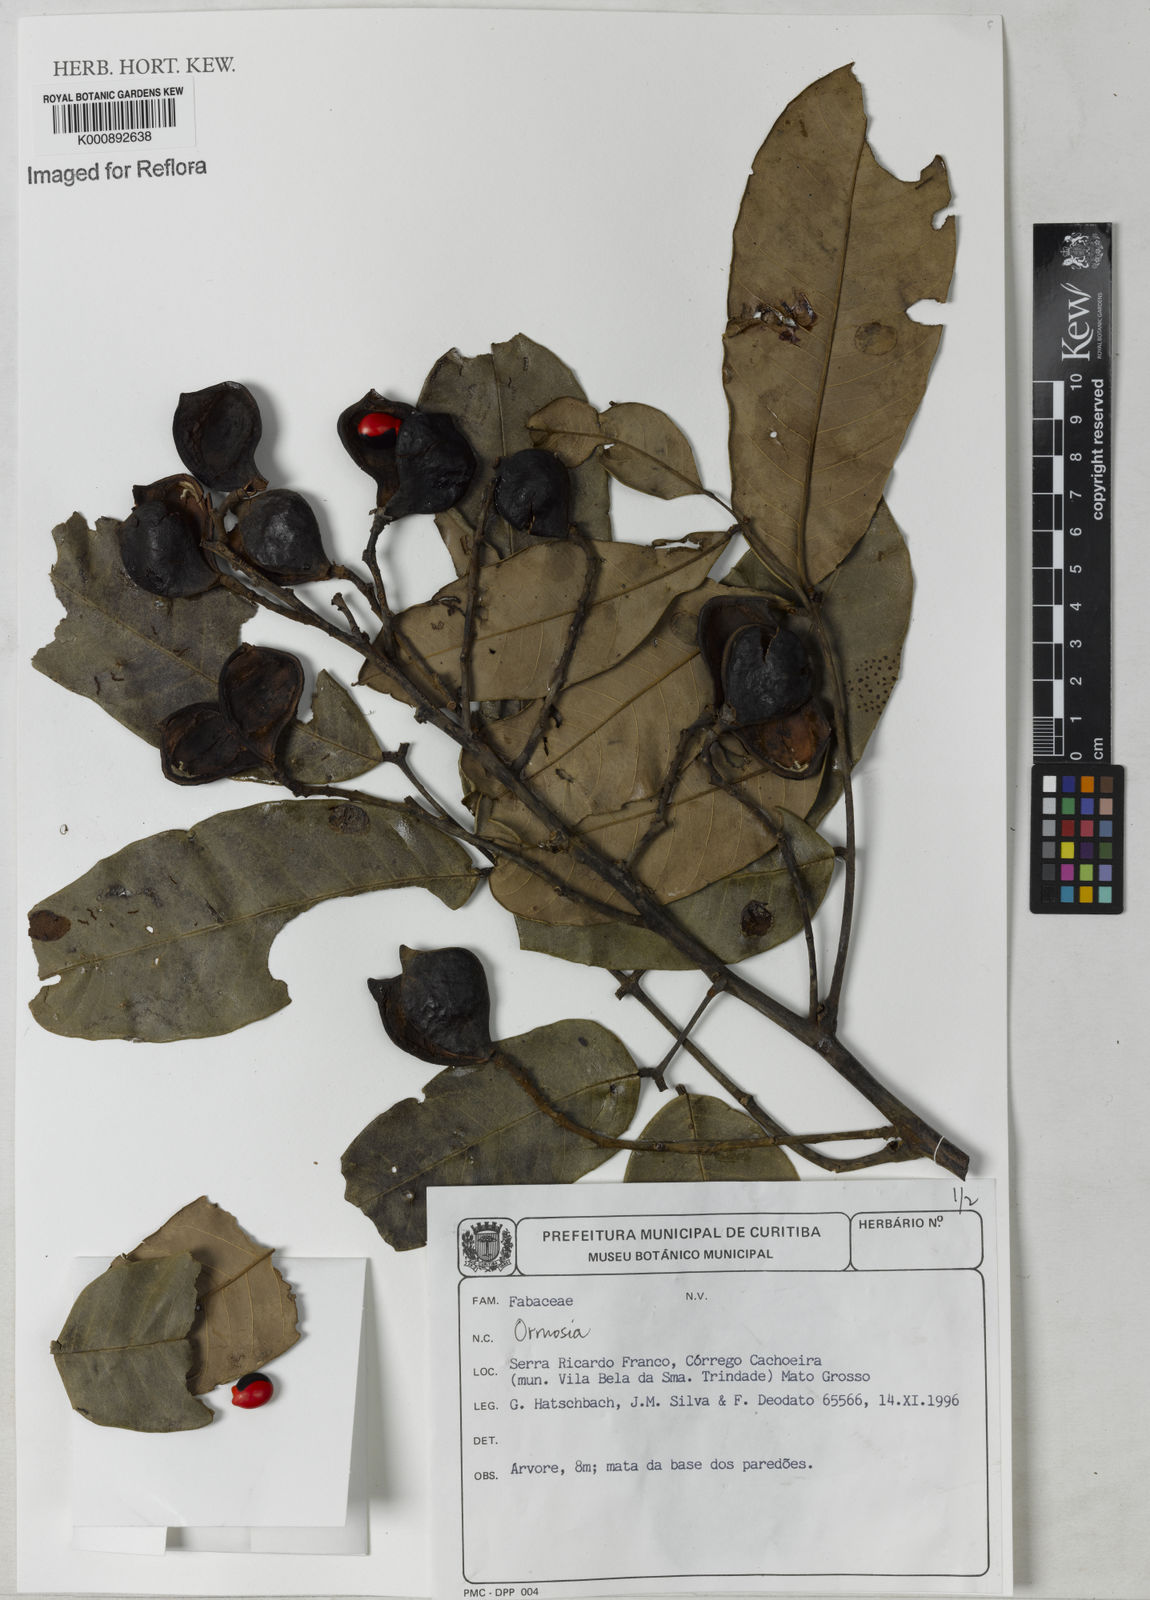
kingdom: Plantae
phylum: Tracheophyta
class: Magnoliopsida
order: Fabales
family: Fabaceae
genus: Ormosia
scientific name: Ormosia
